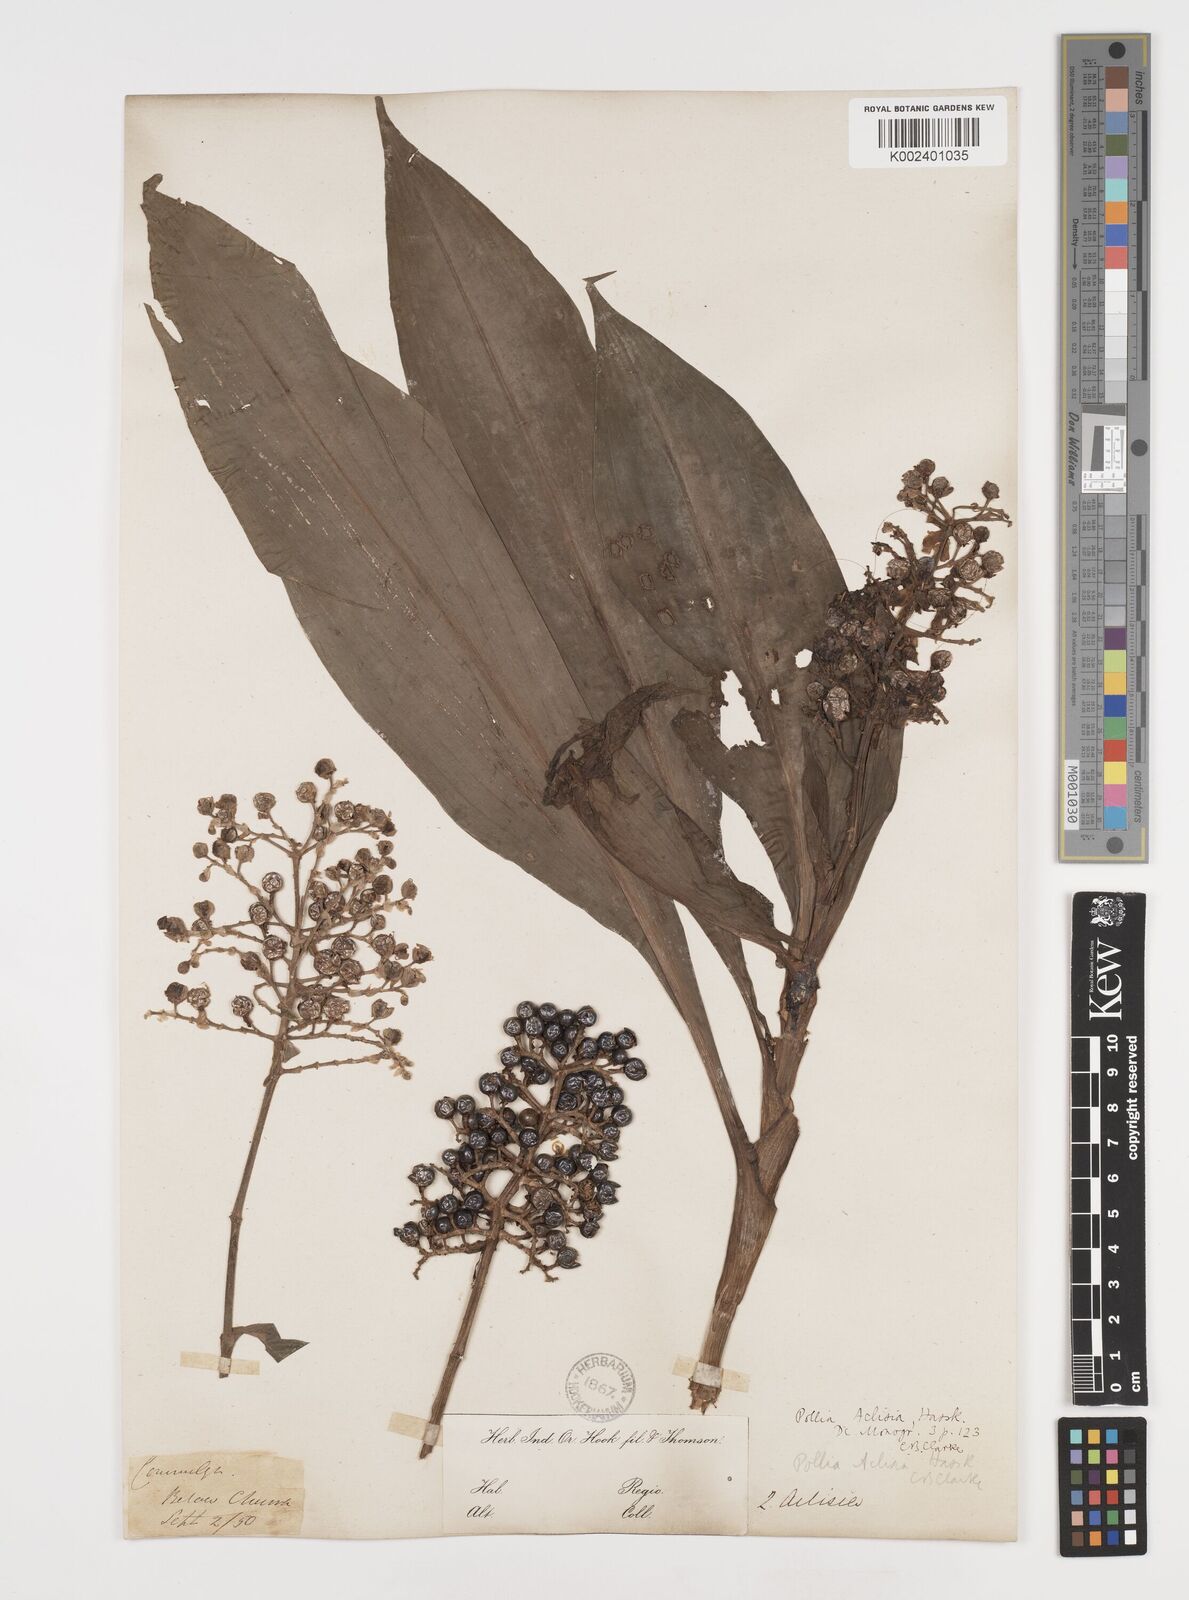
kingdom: Plantae
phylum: Tracheophyta
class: Liliopsida
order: Commelinales
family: Commelinaceae
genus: Pollia
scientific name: Pollia hasskarlii
